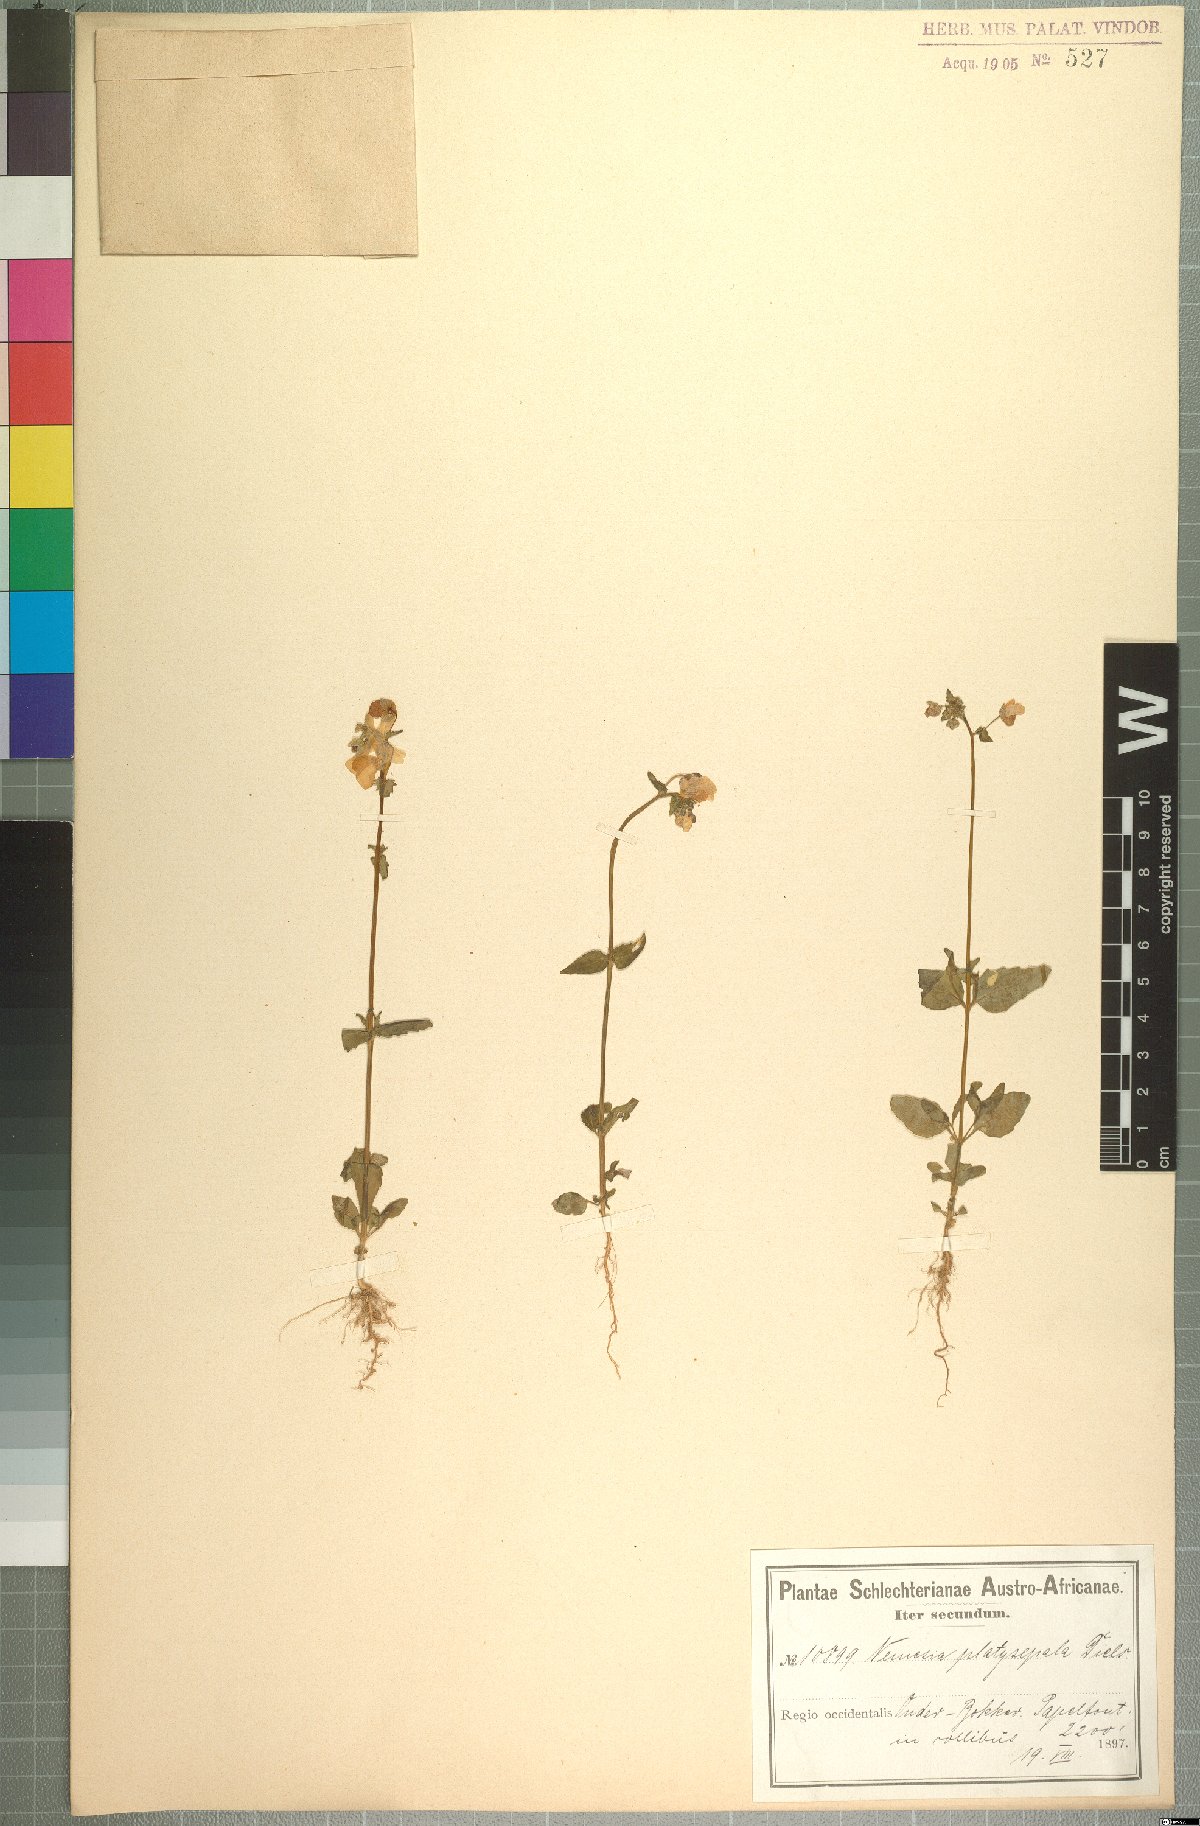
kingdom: Plantae
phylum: Tracheophyta
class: Magnoliopsida
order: Lamiales
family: Scrophulariaceae
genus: Nemesia
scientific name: Nemesia platysepala
